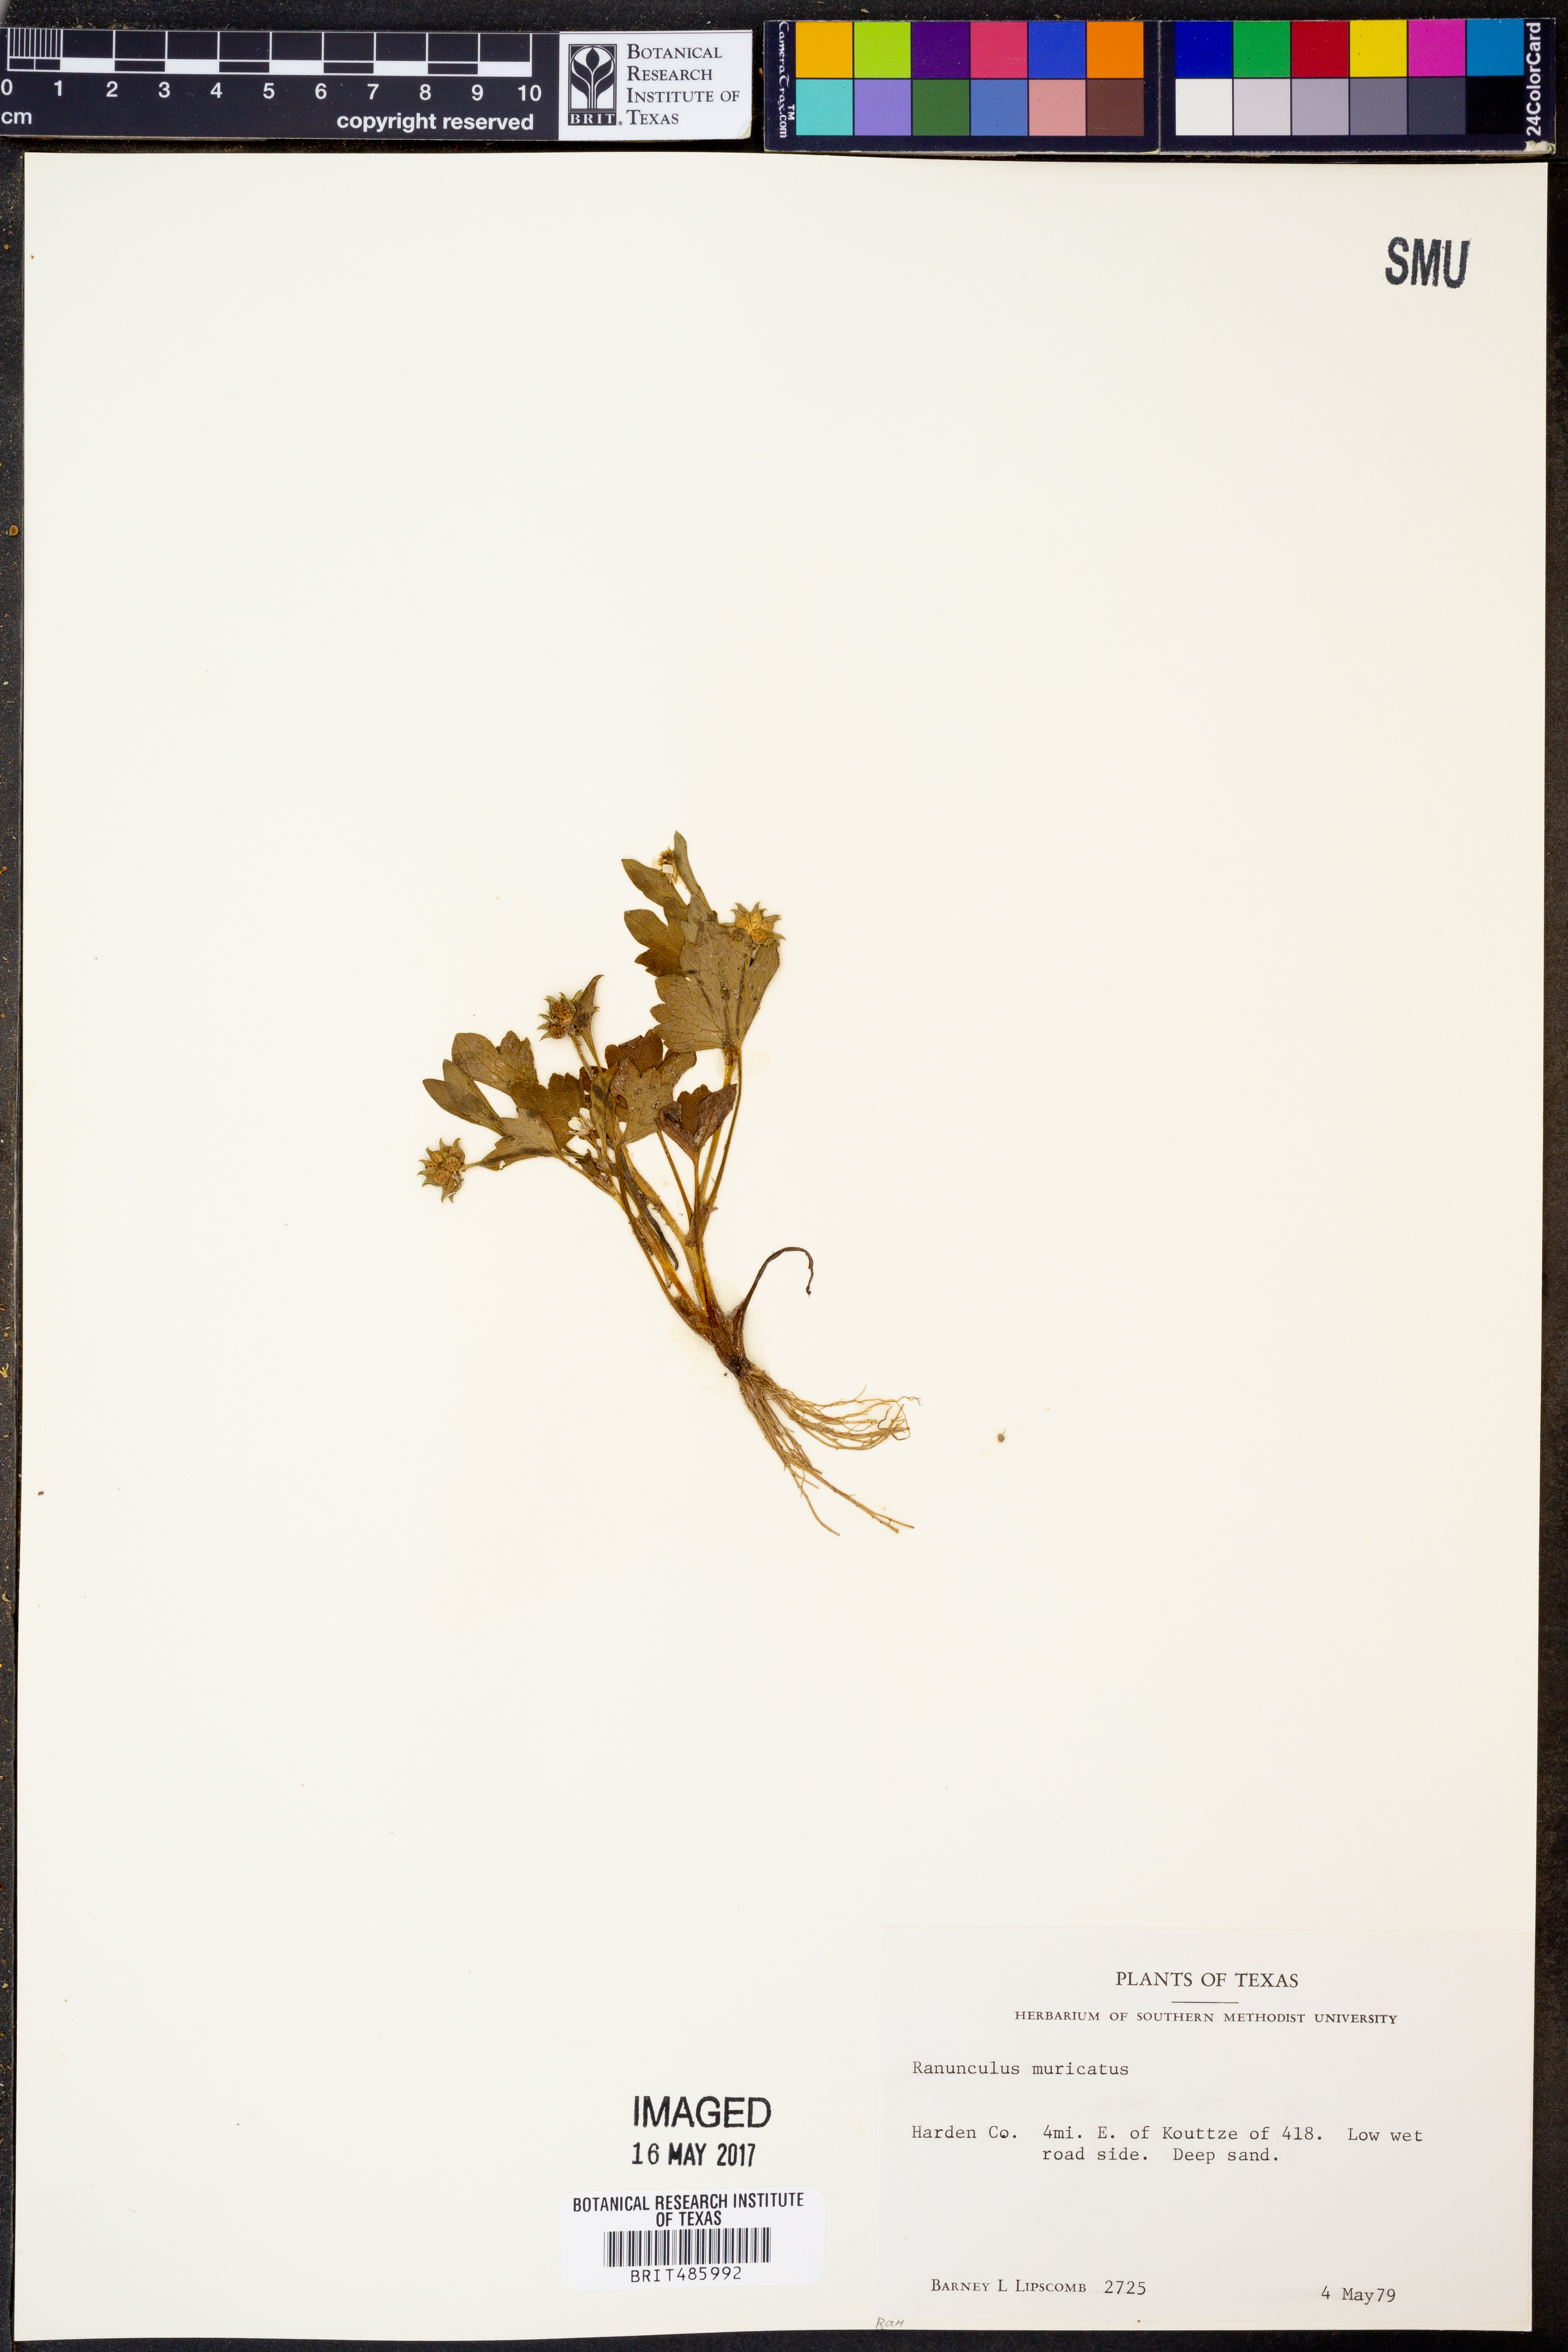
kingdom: Plantae
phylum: Tracheophyta
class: Magnoliopsida
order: Ranunculales
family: Ranunculaceae
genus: Ranunculus
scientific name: Ranunculus muricatus
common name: Rough-fruited buttercup
